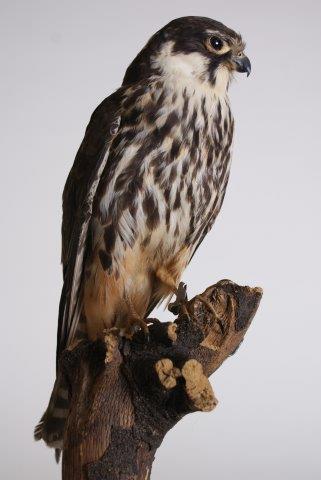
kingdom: Animalia
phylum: Chordata
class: Aves
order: Falconiformes
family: Falconidae
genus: Falco
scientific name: Falco subbuteo
